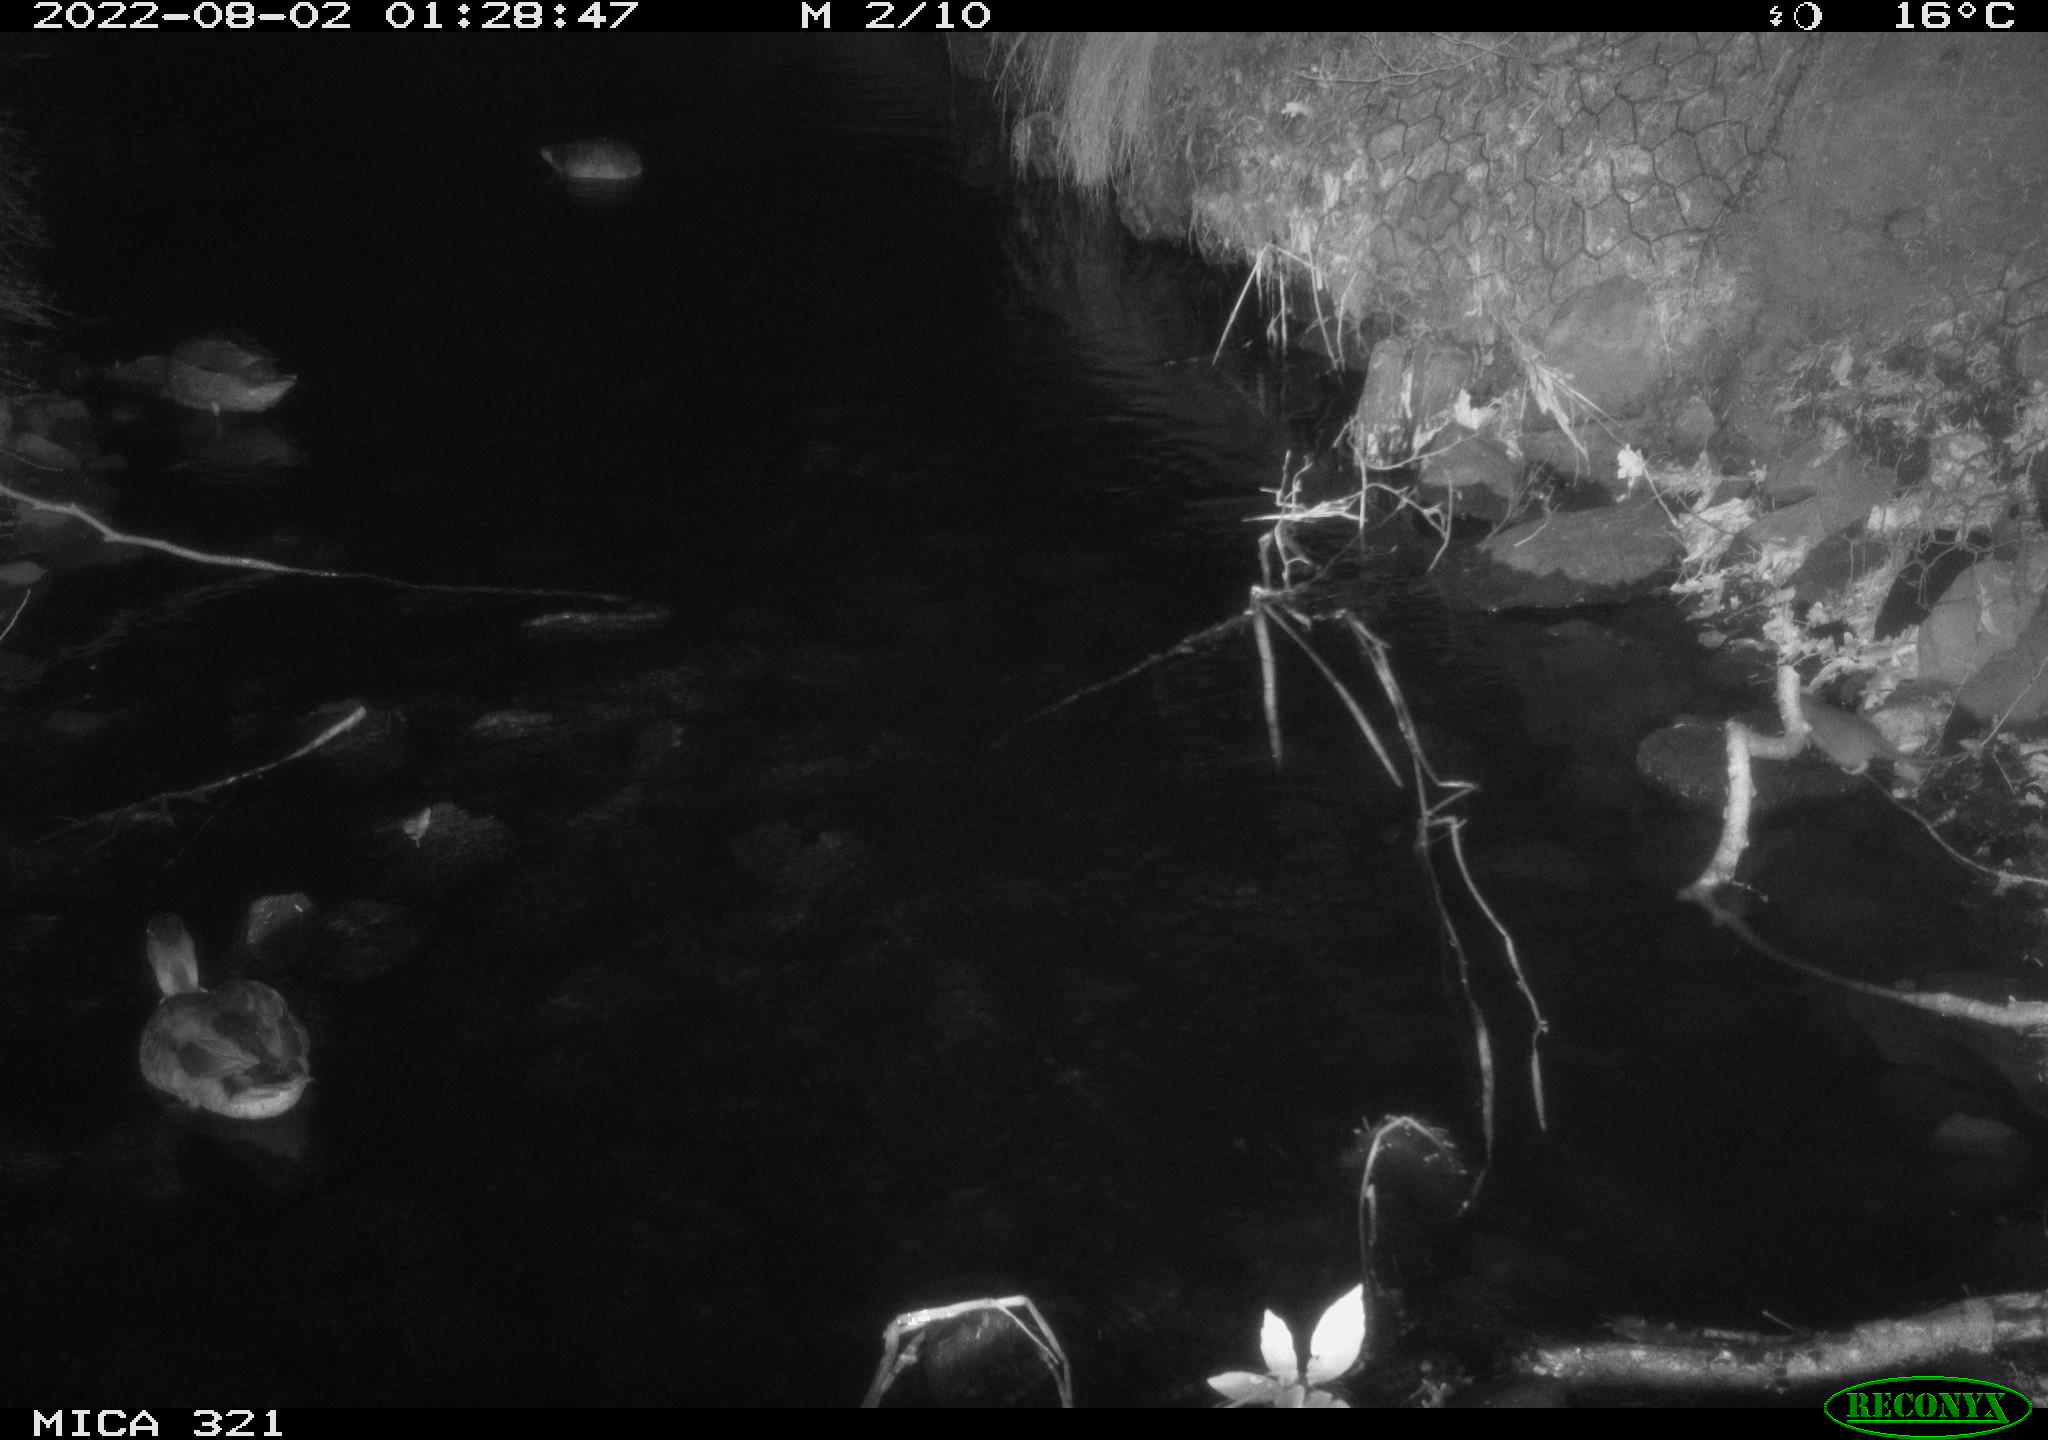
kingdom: Animalia
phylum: Chordata
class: Aves
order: Anseriformes
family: Anatidae
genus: Anas
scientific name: Anas platyrhynchos
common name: Mallard
